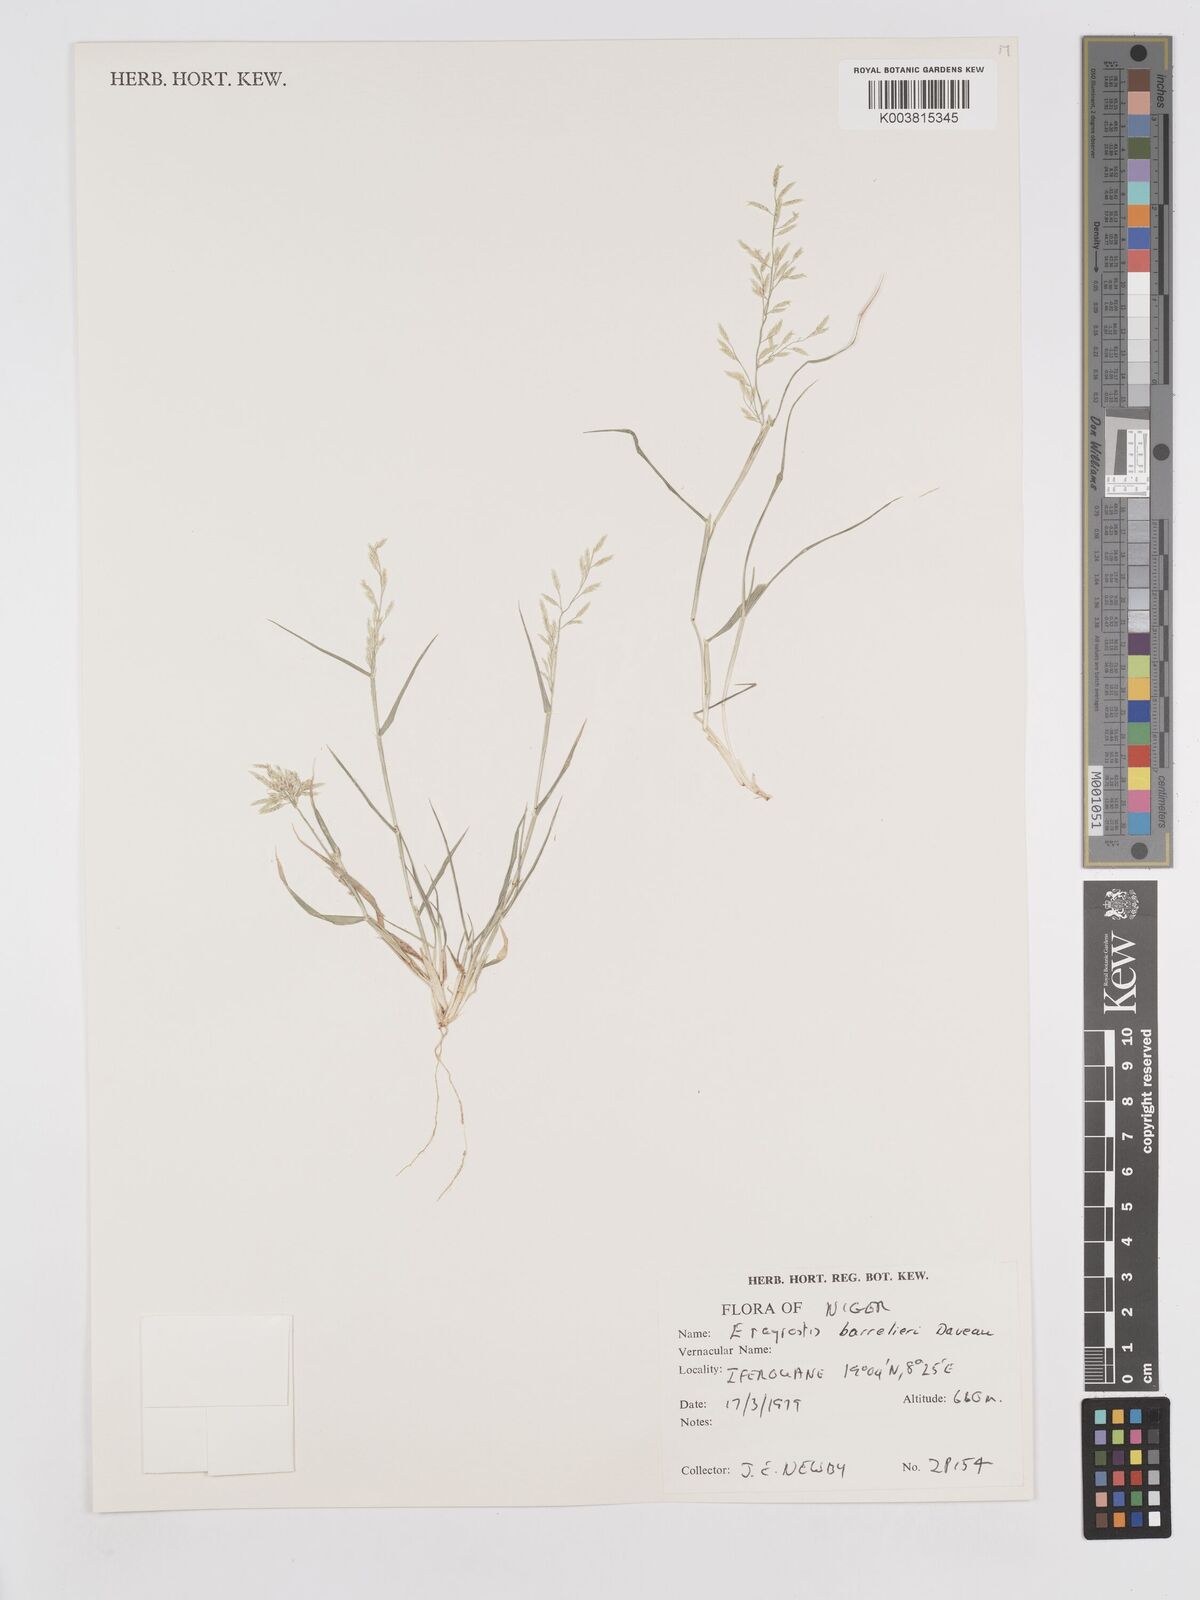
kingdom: Plantae
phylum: Tracheophyta
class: Liliopsida
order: Poales
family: Poaceae
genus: Eragrostis
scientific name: Eragrostis barrelieri
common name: Mediterranean lovegrass
